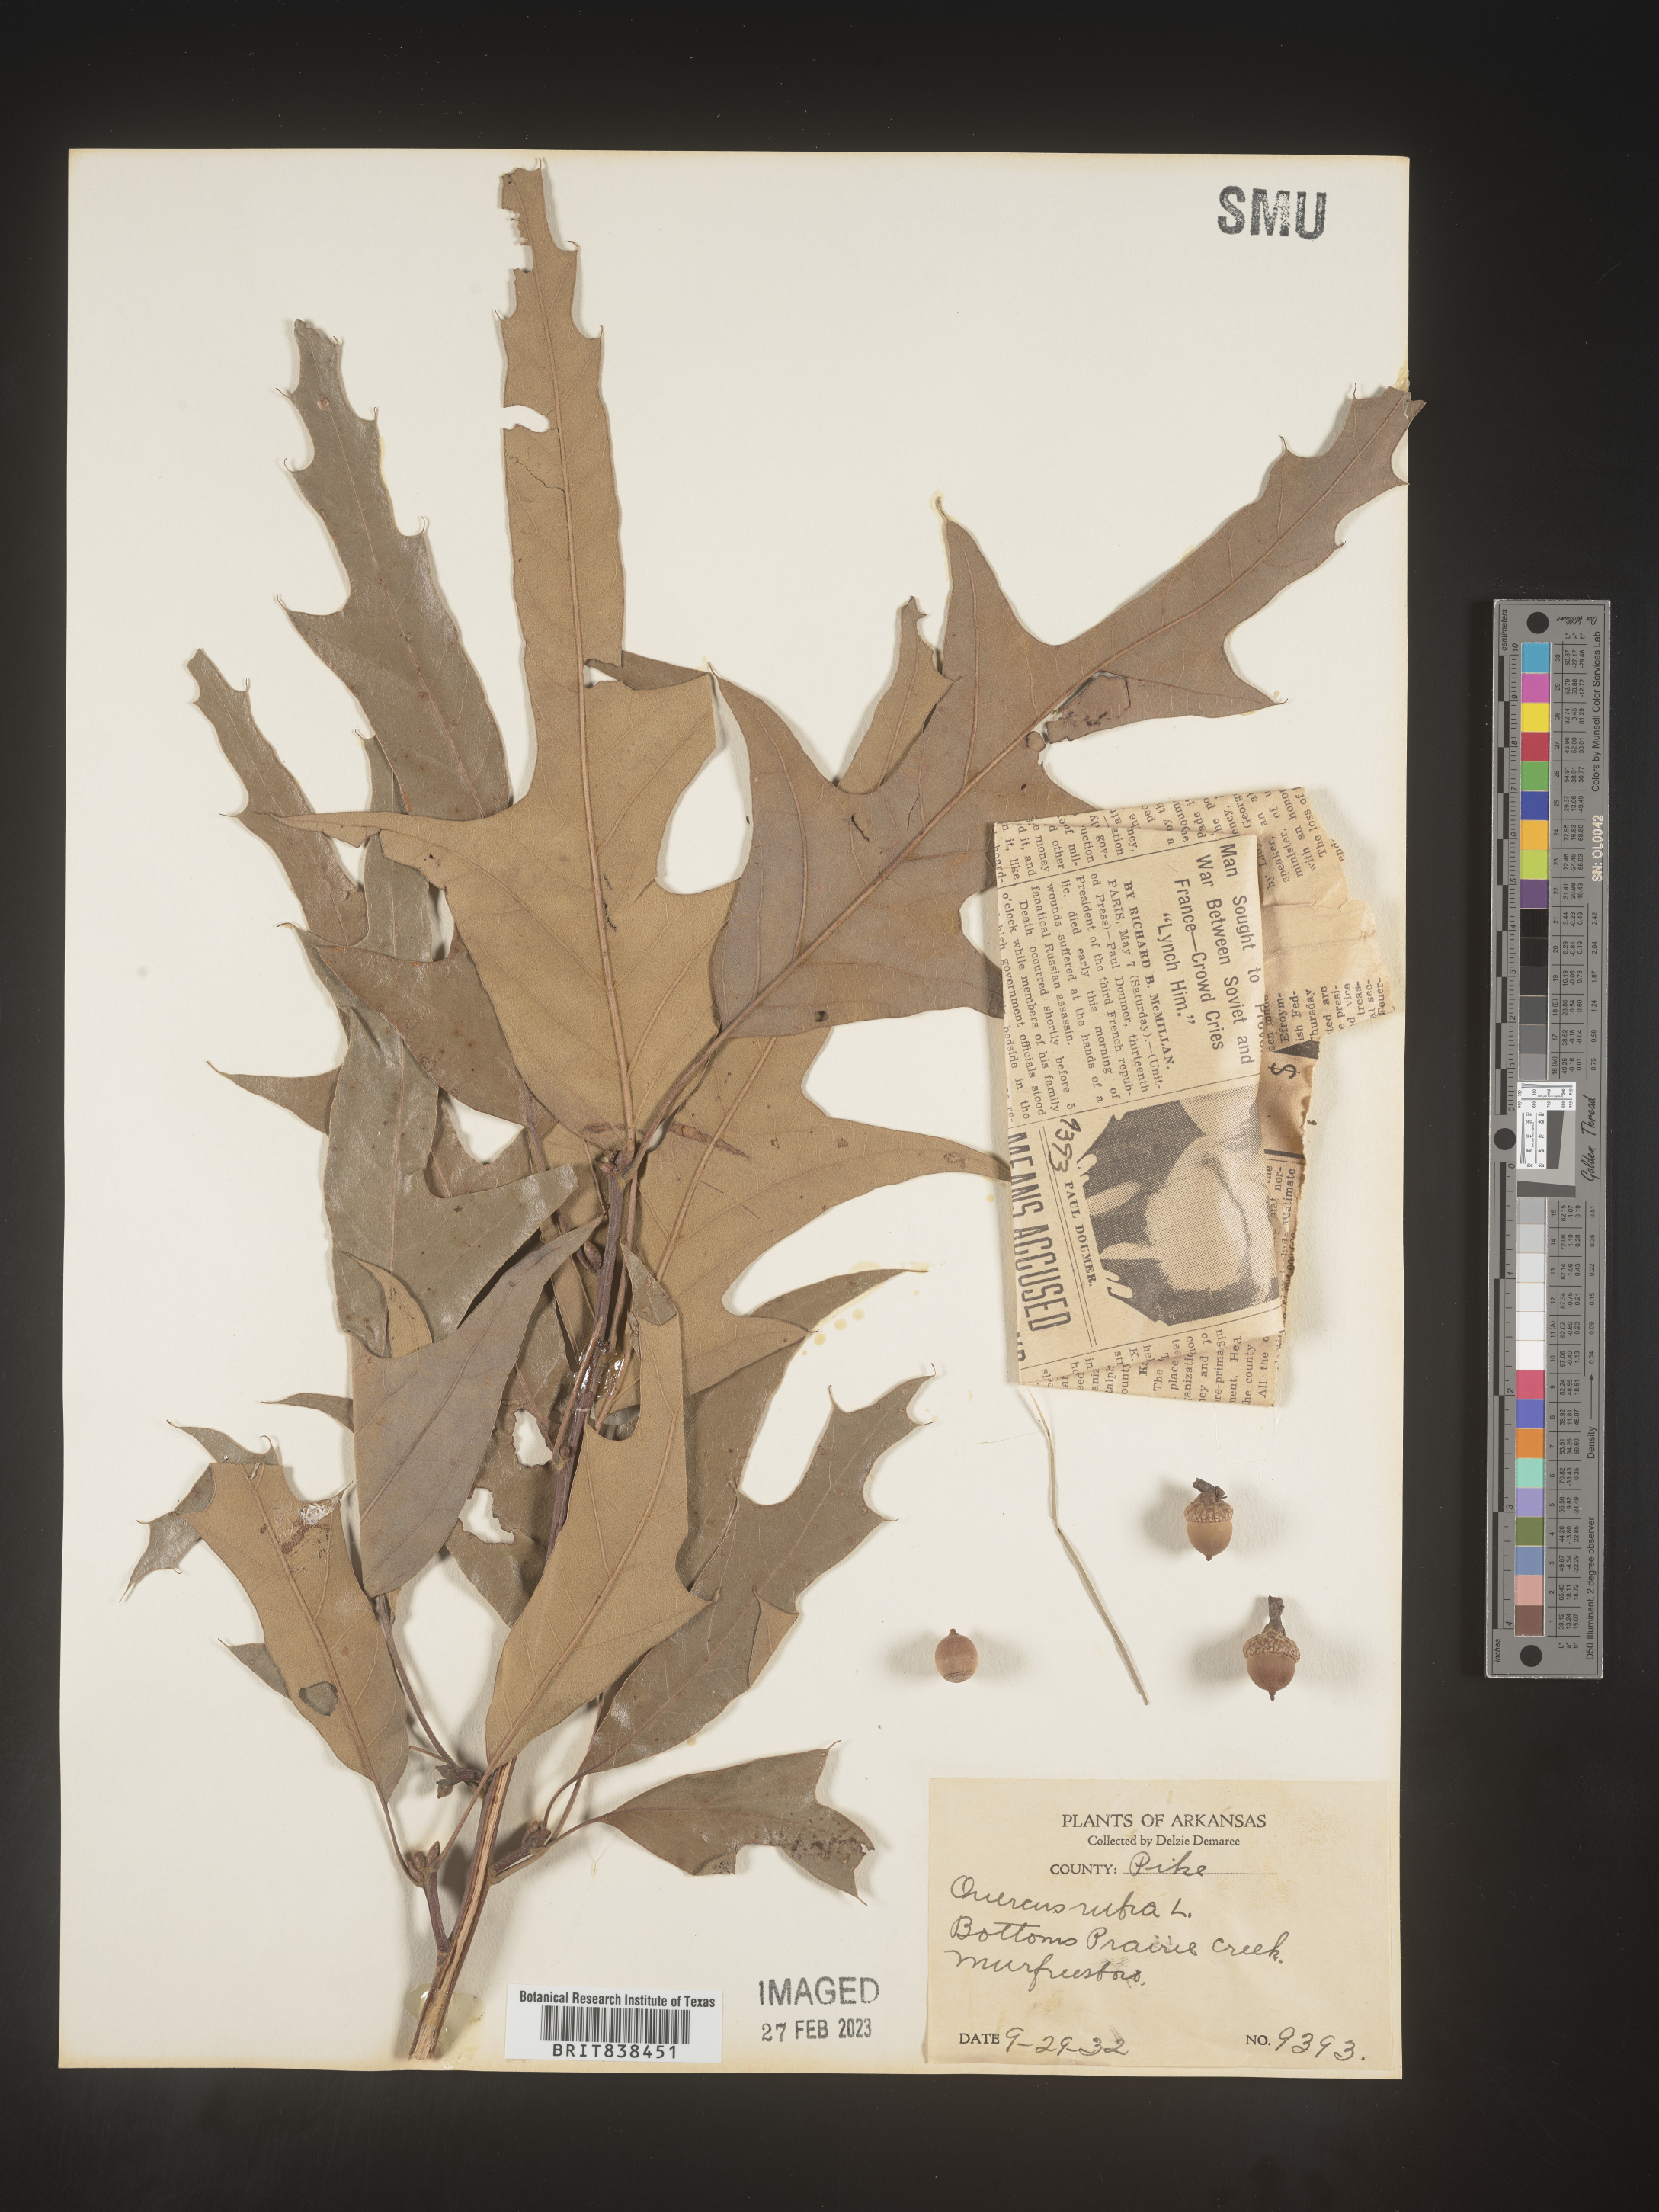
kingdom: Plantae
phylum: Tracheophyta
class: Magnoliopsida
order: Fagales
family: Fagaceae
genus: Quercus
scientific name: Quercus falcata
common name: Southern red oak
